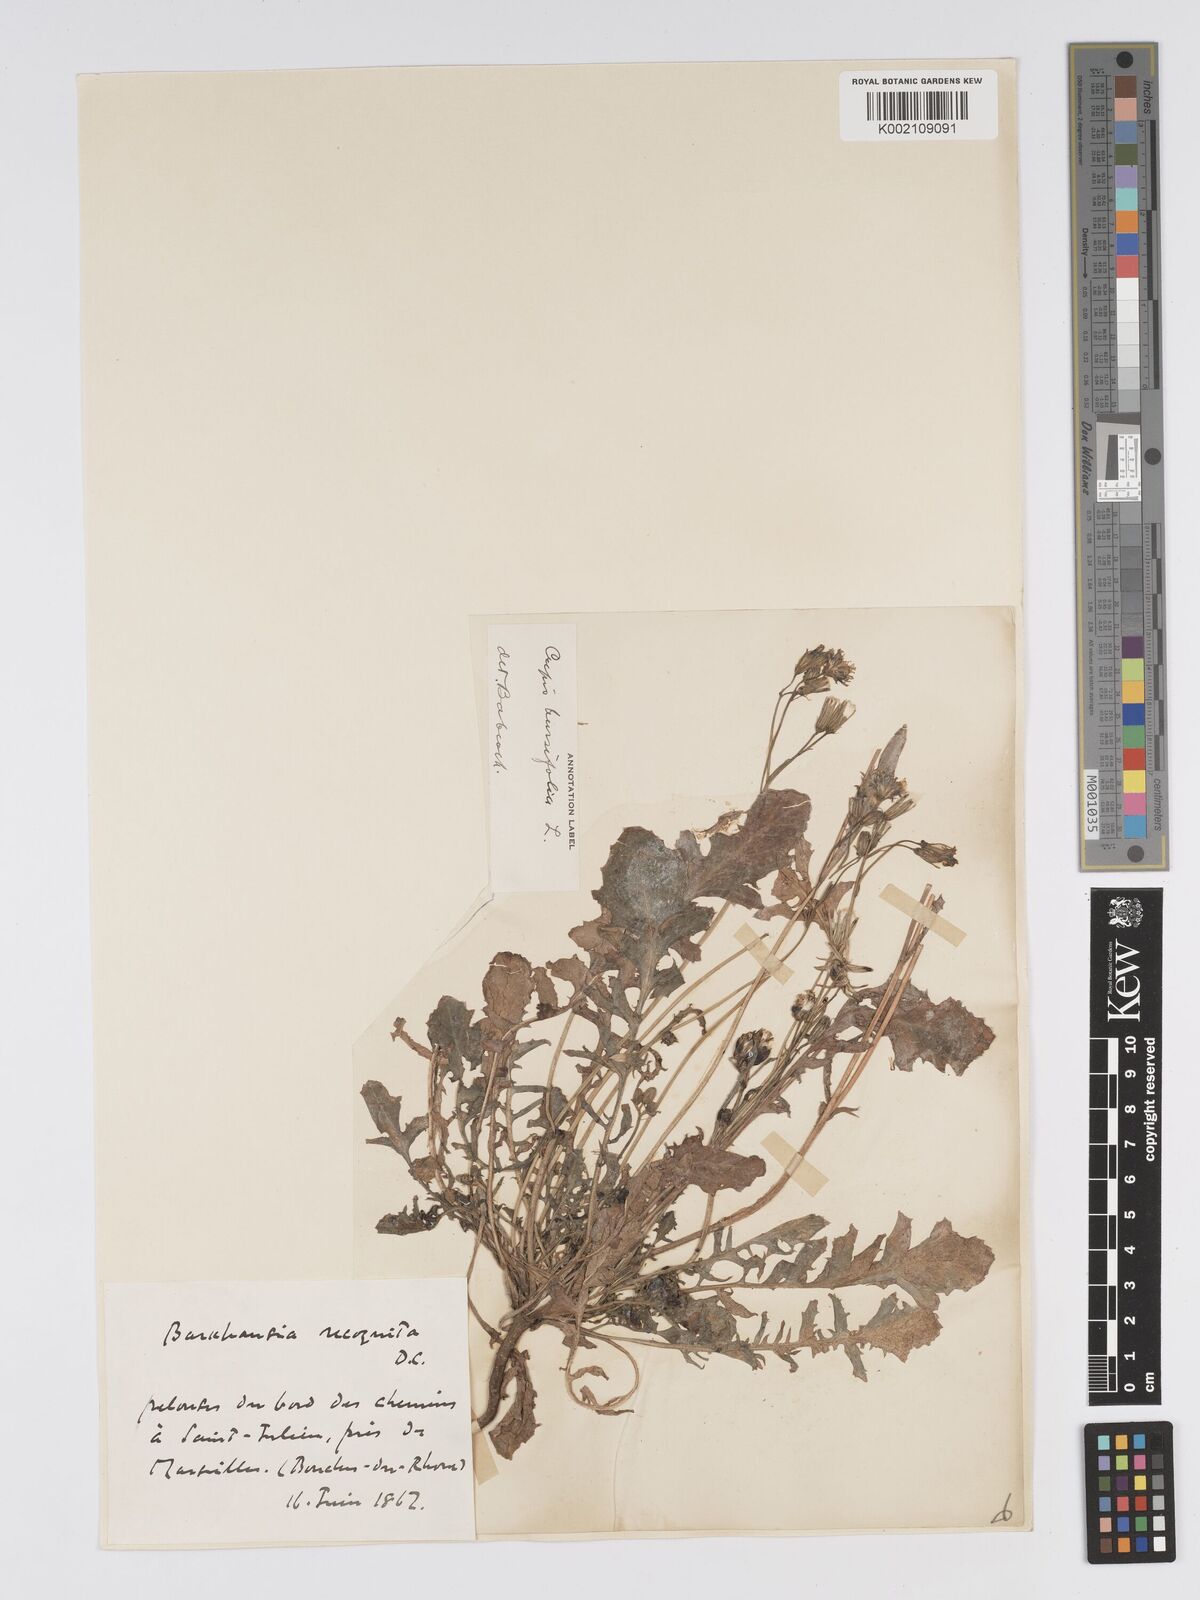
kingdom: Plantae
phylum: Tracheophyta
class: Magnoliopsida
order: Asterales
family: Asteraceae
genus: Crepis
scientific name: Crepis bursifolia
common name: Italian hawksbeard
